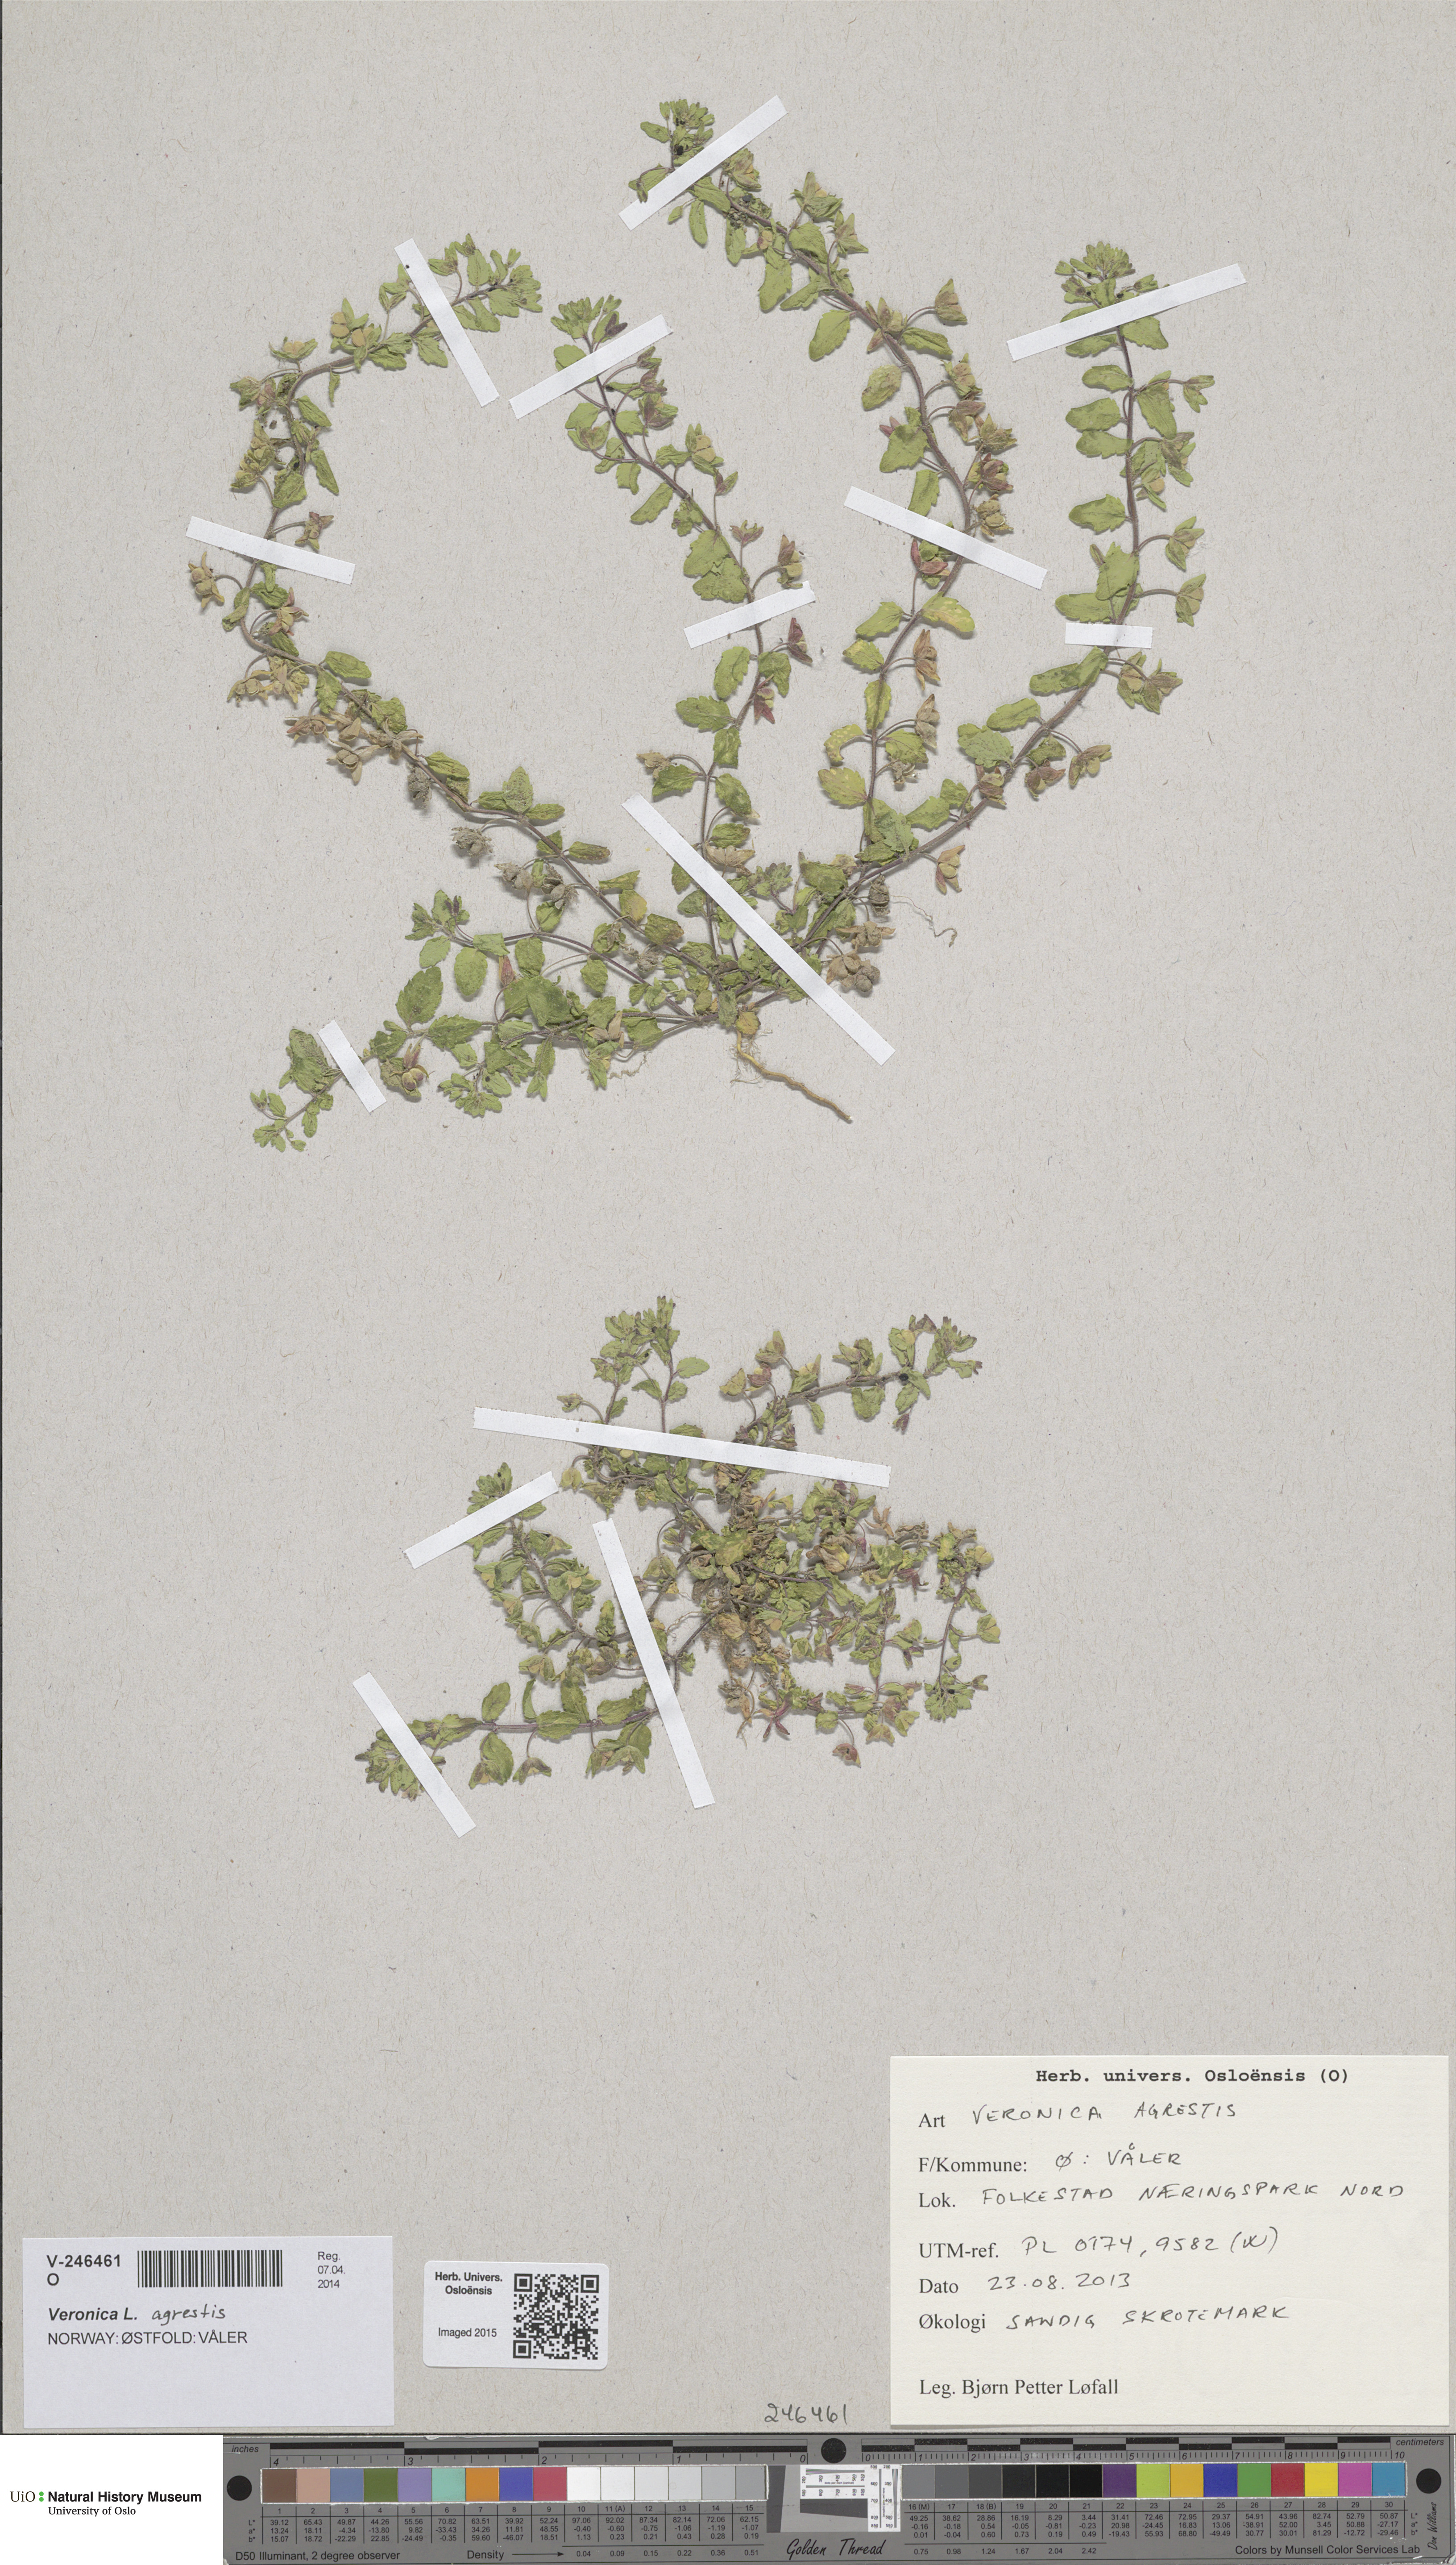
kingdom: Plantae
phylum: Tracheophyta
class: Magnoliopsida
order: Lamiales
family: Plantaginaceae
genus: Veronica
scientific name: Veronica agrestis
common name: Green field-speedwell
